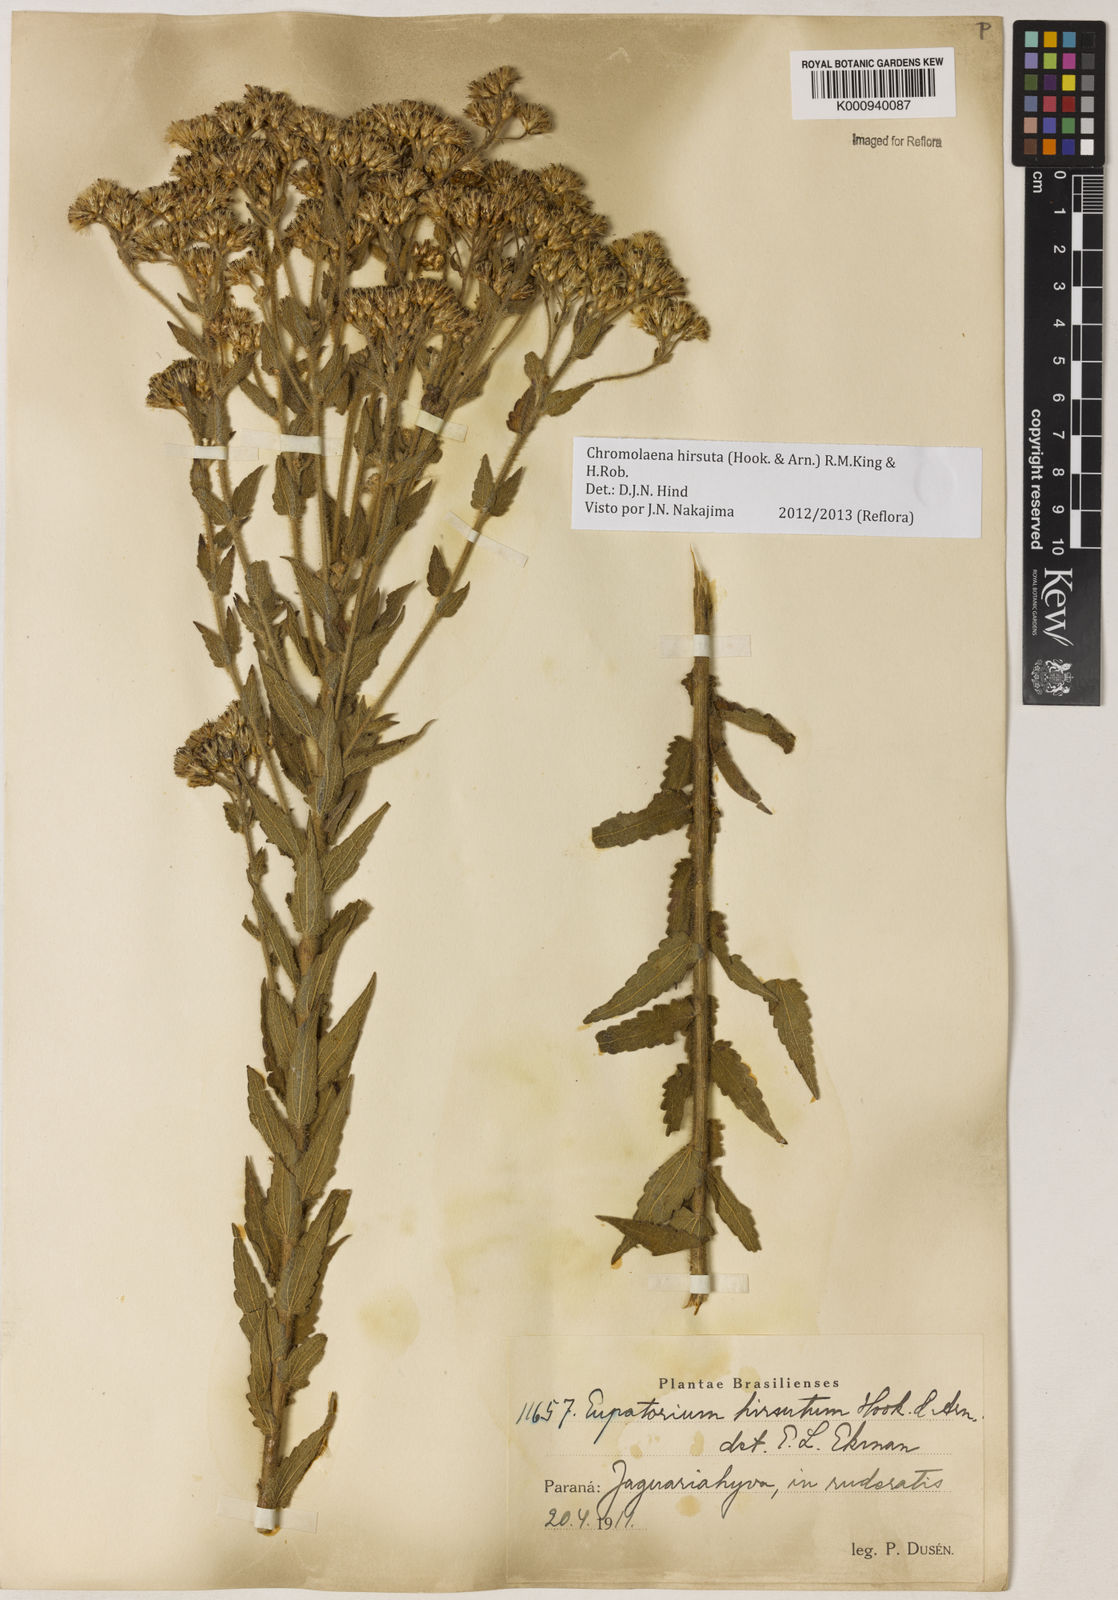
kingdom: Plantae
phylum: Tracheophyta
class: Magnoliopsida
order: Asterales
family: Asteraceae
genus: Chromolaena
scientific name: Chromolaena hirsuta
